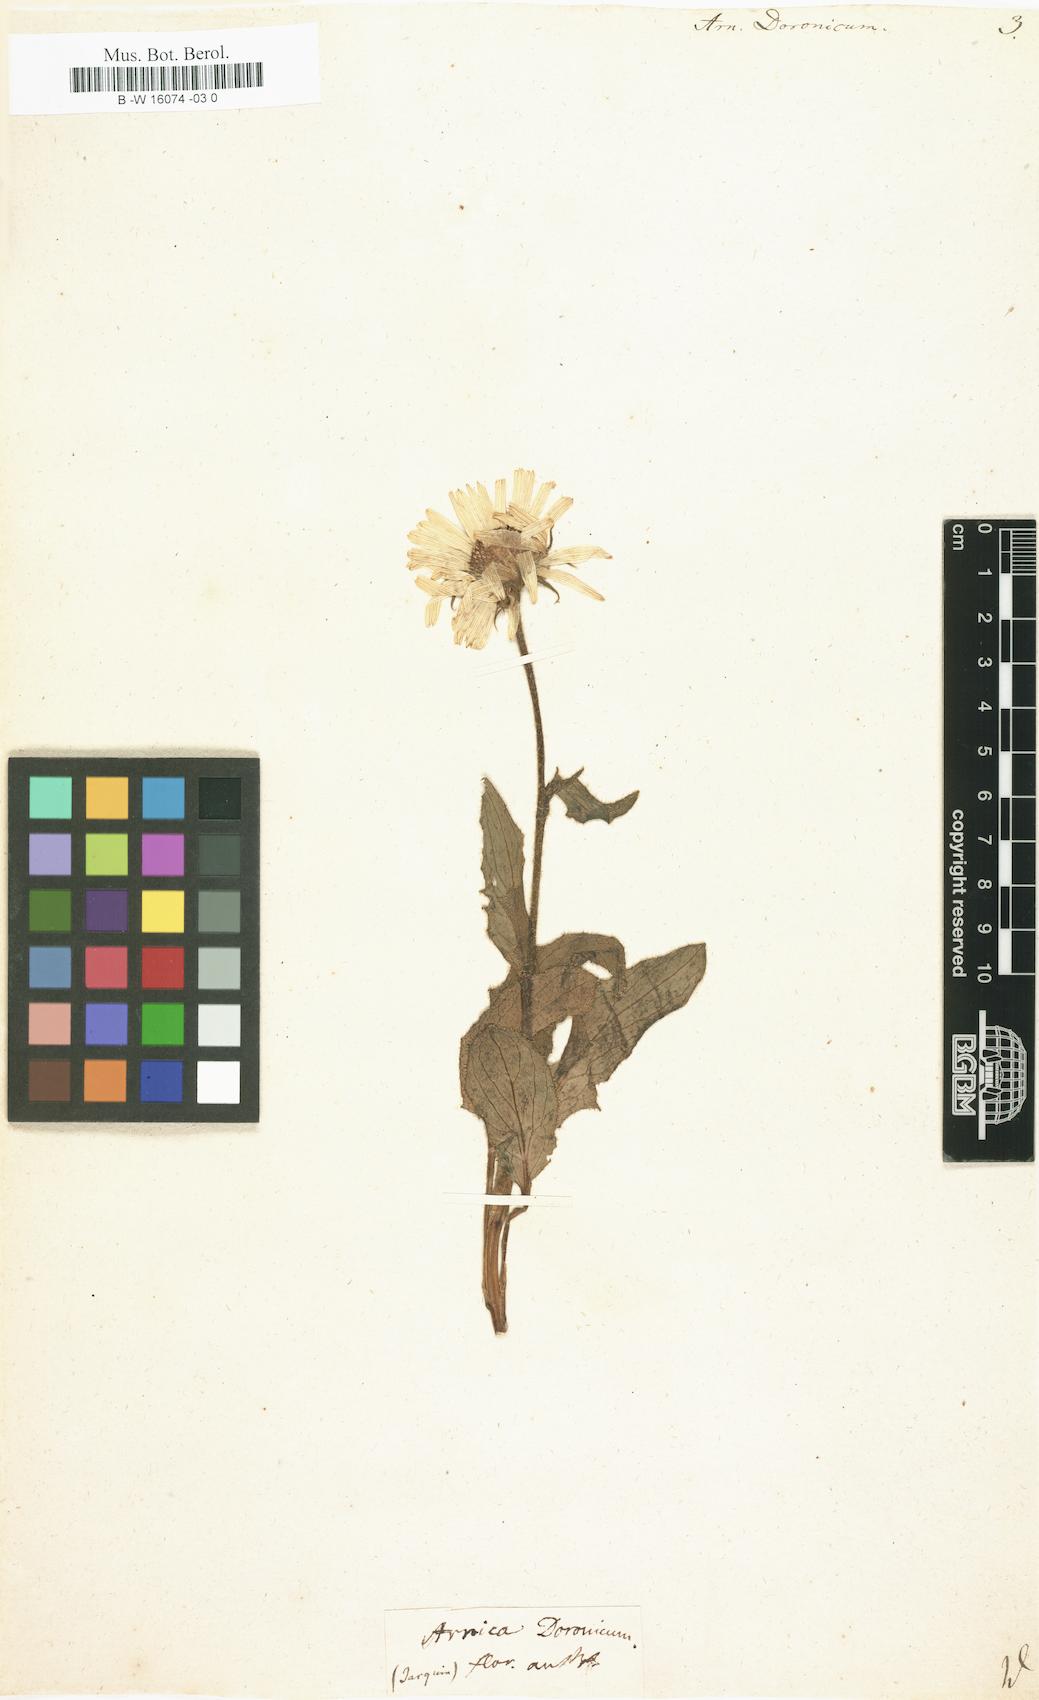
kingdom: Plantae
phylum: Tracheophyta
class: Magnoliopsida
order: Asterales
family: Asteraceae
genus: Doronicum
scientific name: Doronicum clusii
